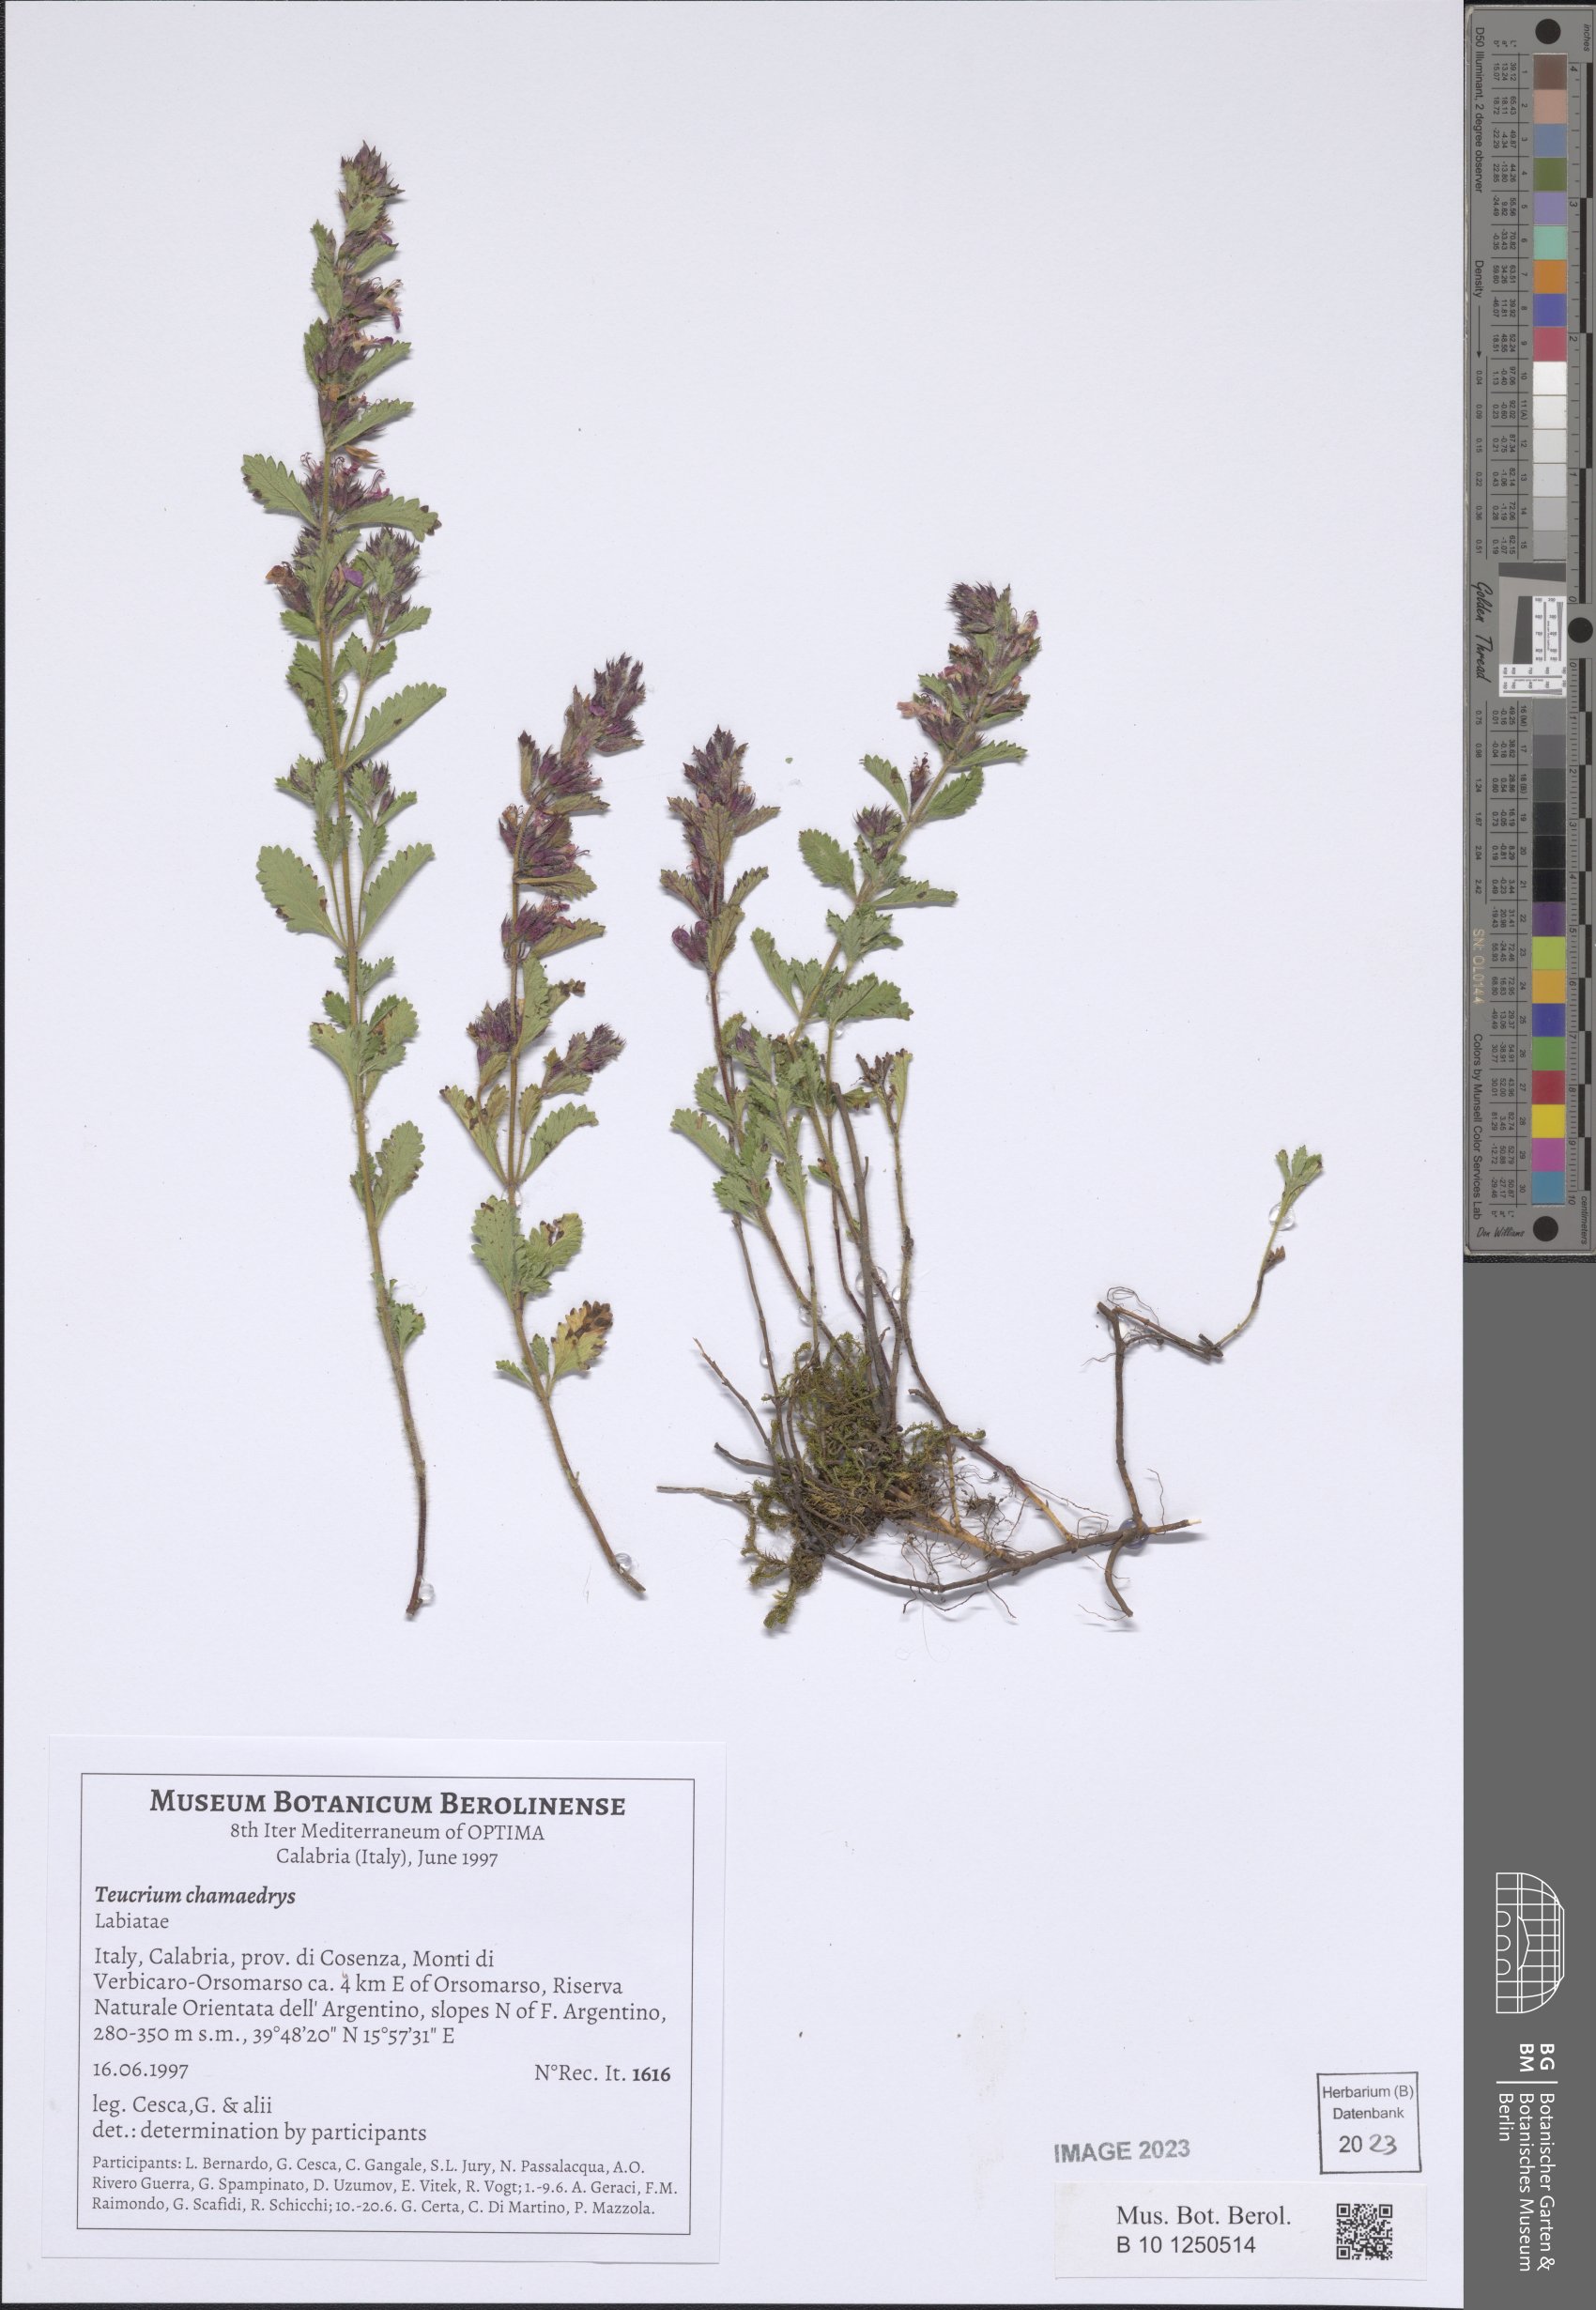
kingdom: Plantae
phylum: Tracheophyta
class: Magnoliopsida
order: Lamiales
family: Lamiaceae
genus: Teucrium
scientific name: Teucrium chamaedrys
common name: Wall germander
